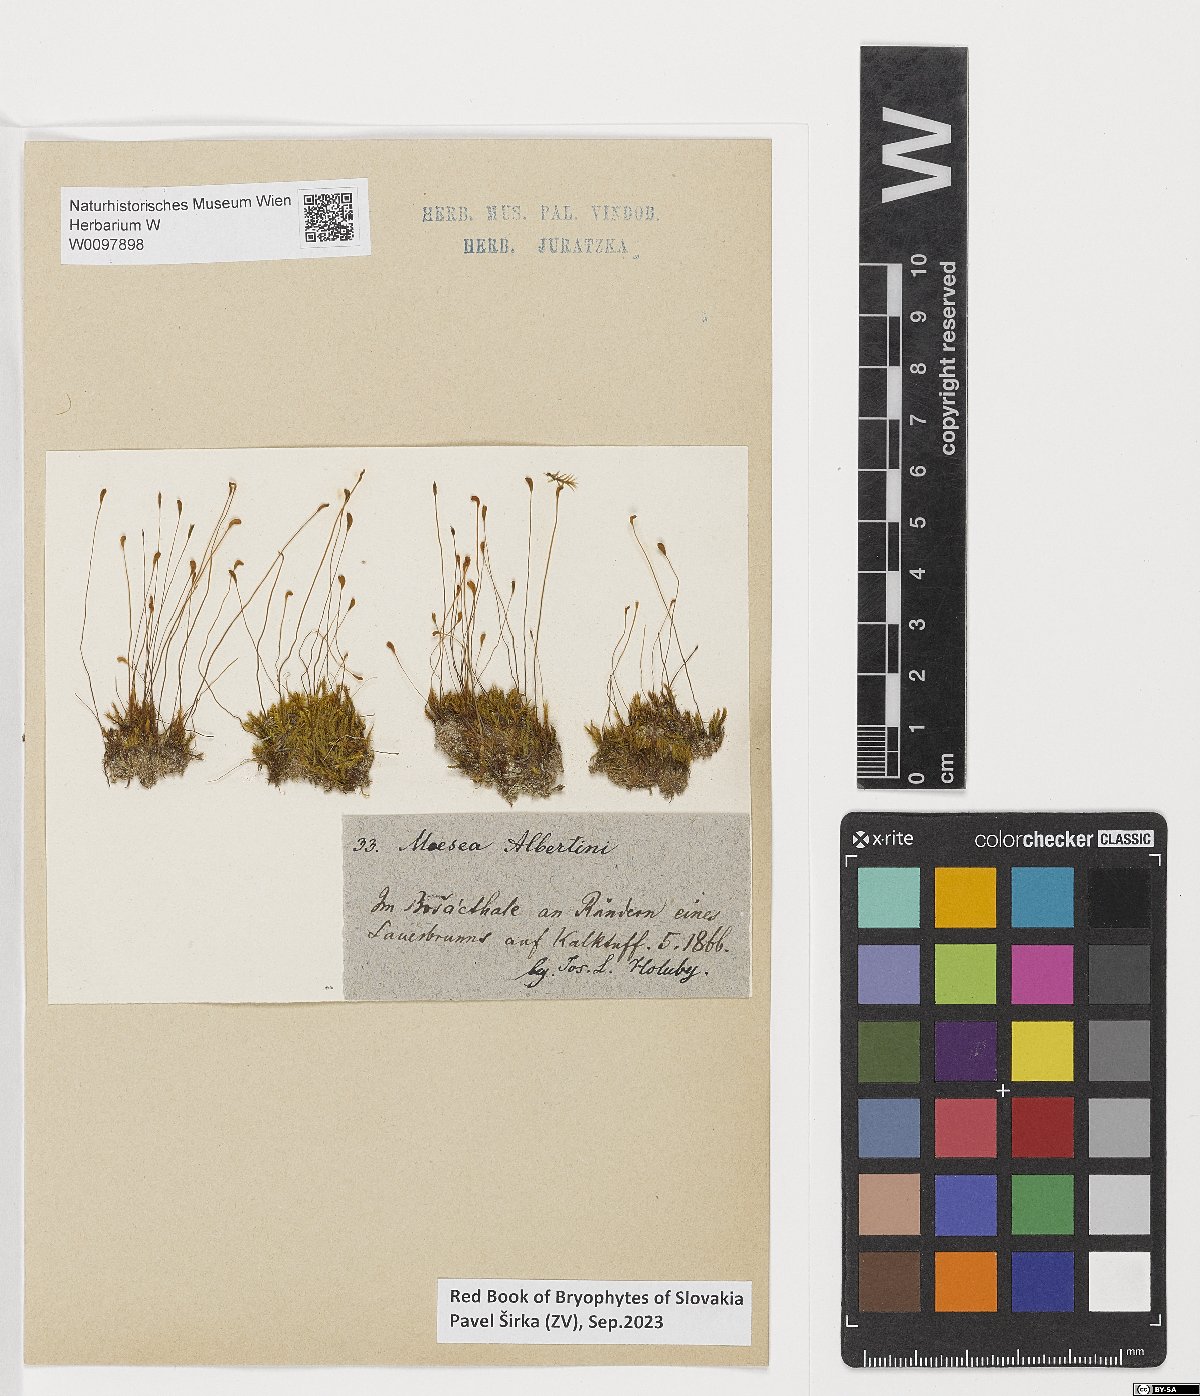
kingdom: Plantae
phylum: Bryophyta
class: Bryopsida
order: Splachnales
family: Meesiaceae
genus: Meesia
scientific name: Meesia hexasticha
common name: Triangular-leaved thread moss
